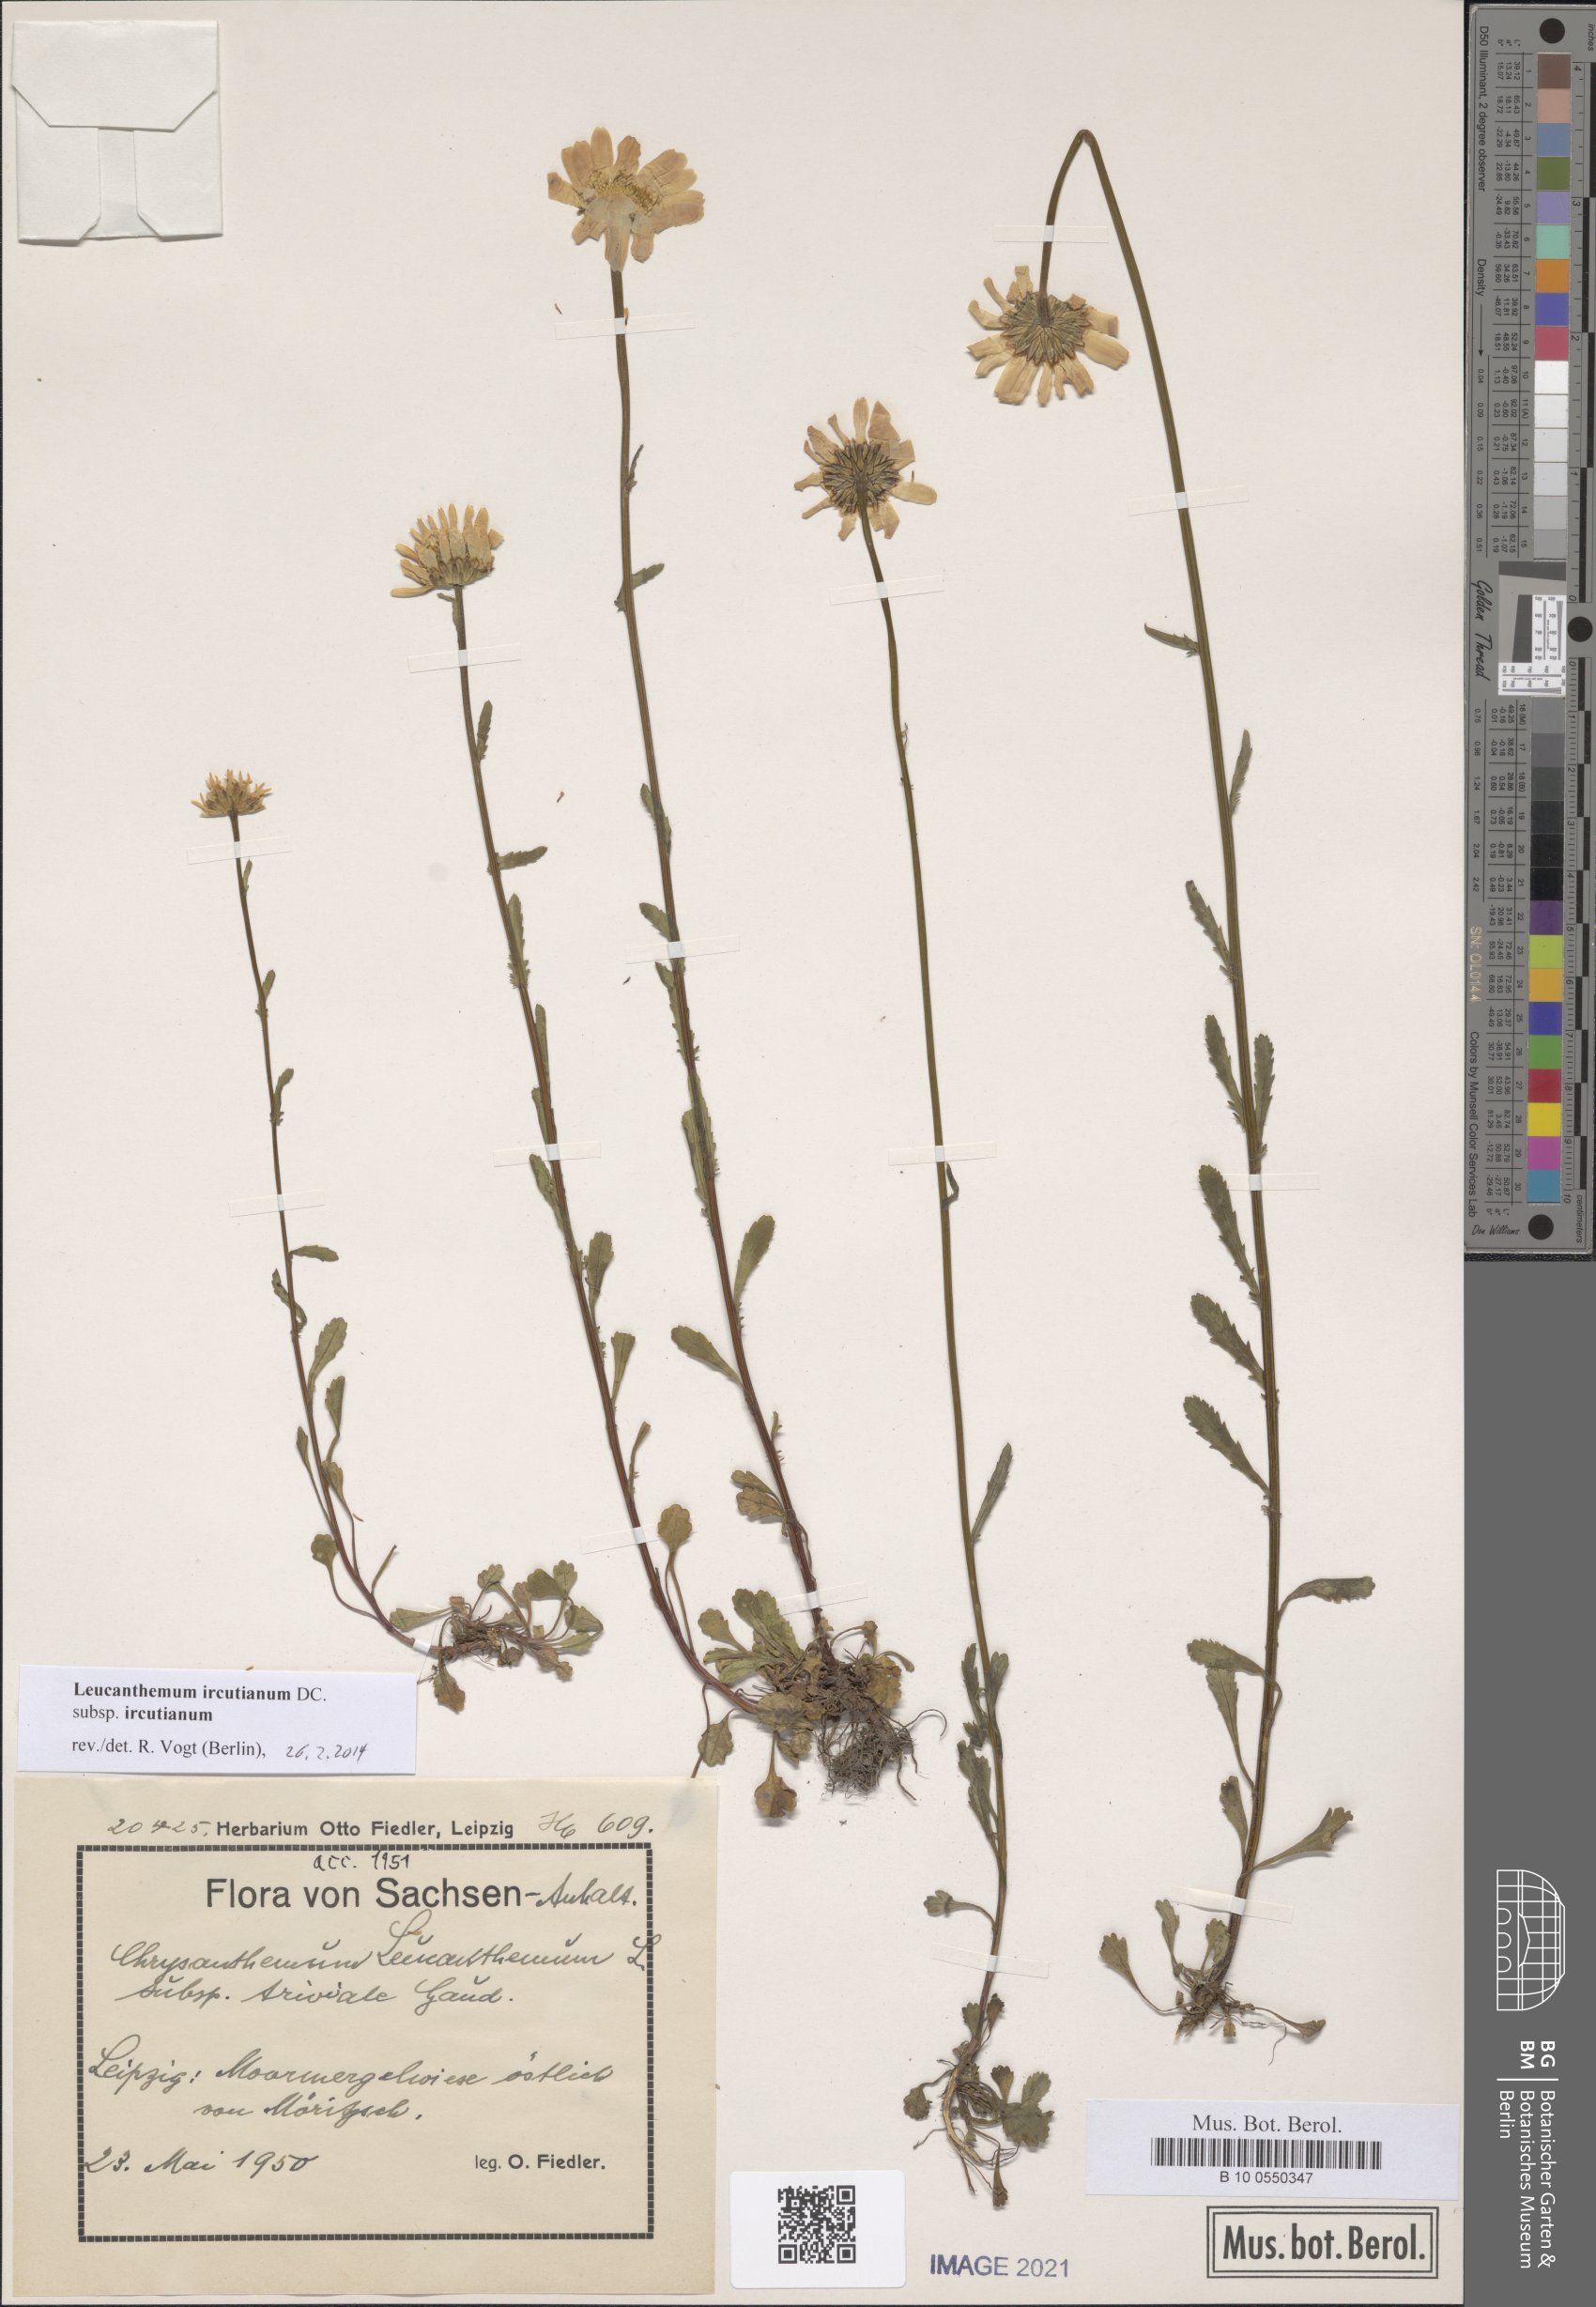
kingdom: Plantae
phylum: Tracheophyta
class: Magnoliopsida
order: Asterales
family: Asteraceae
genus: Leucanthemum
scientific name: Leucanthemum ircutianum
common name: Daisy
